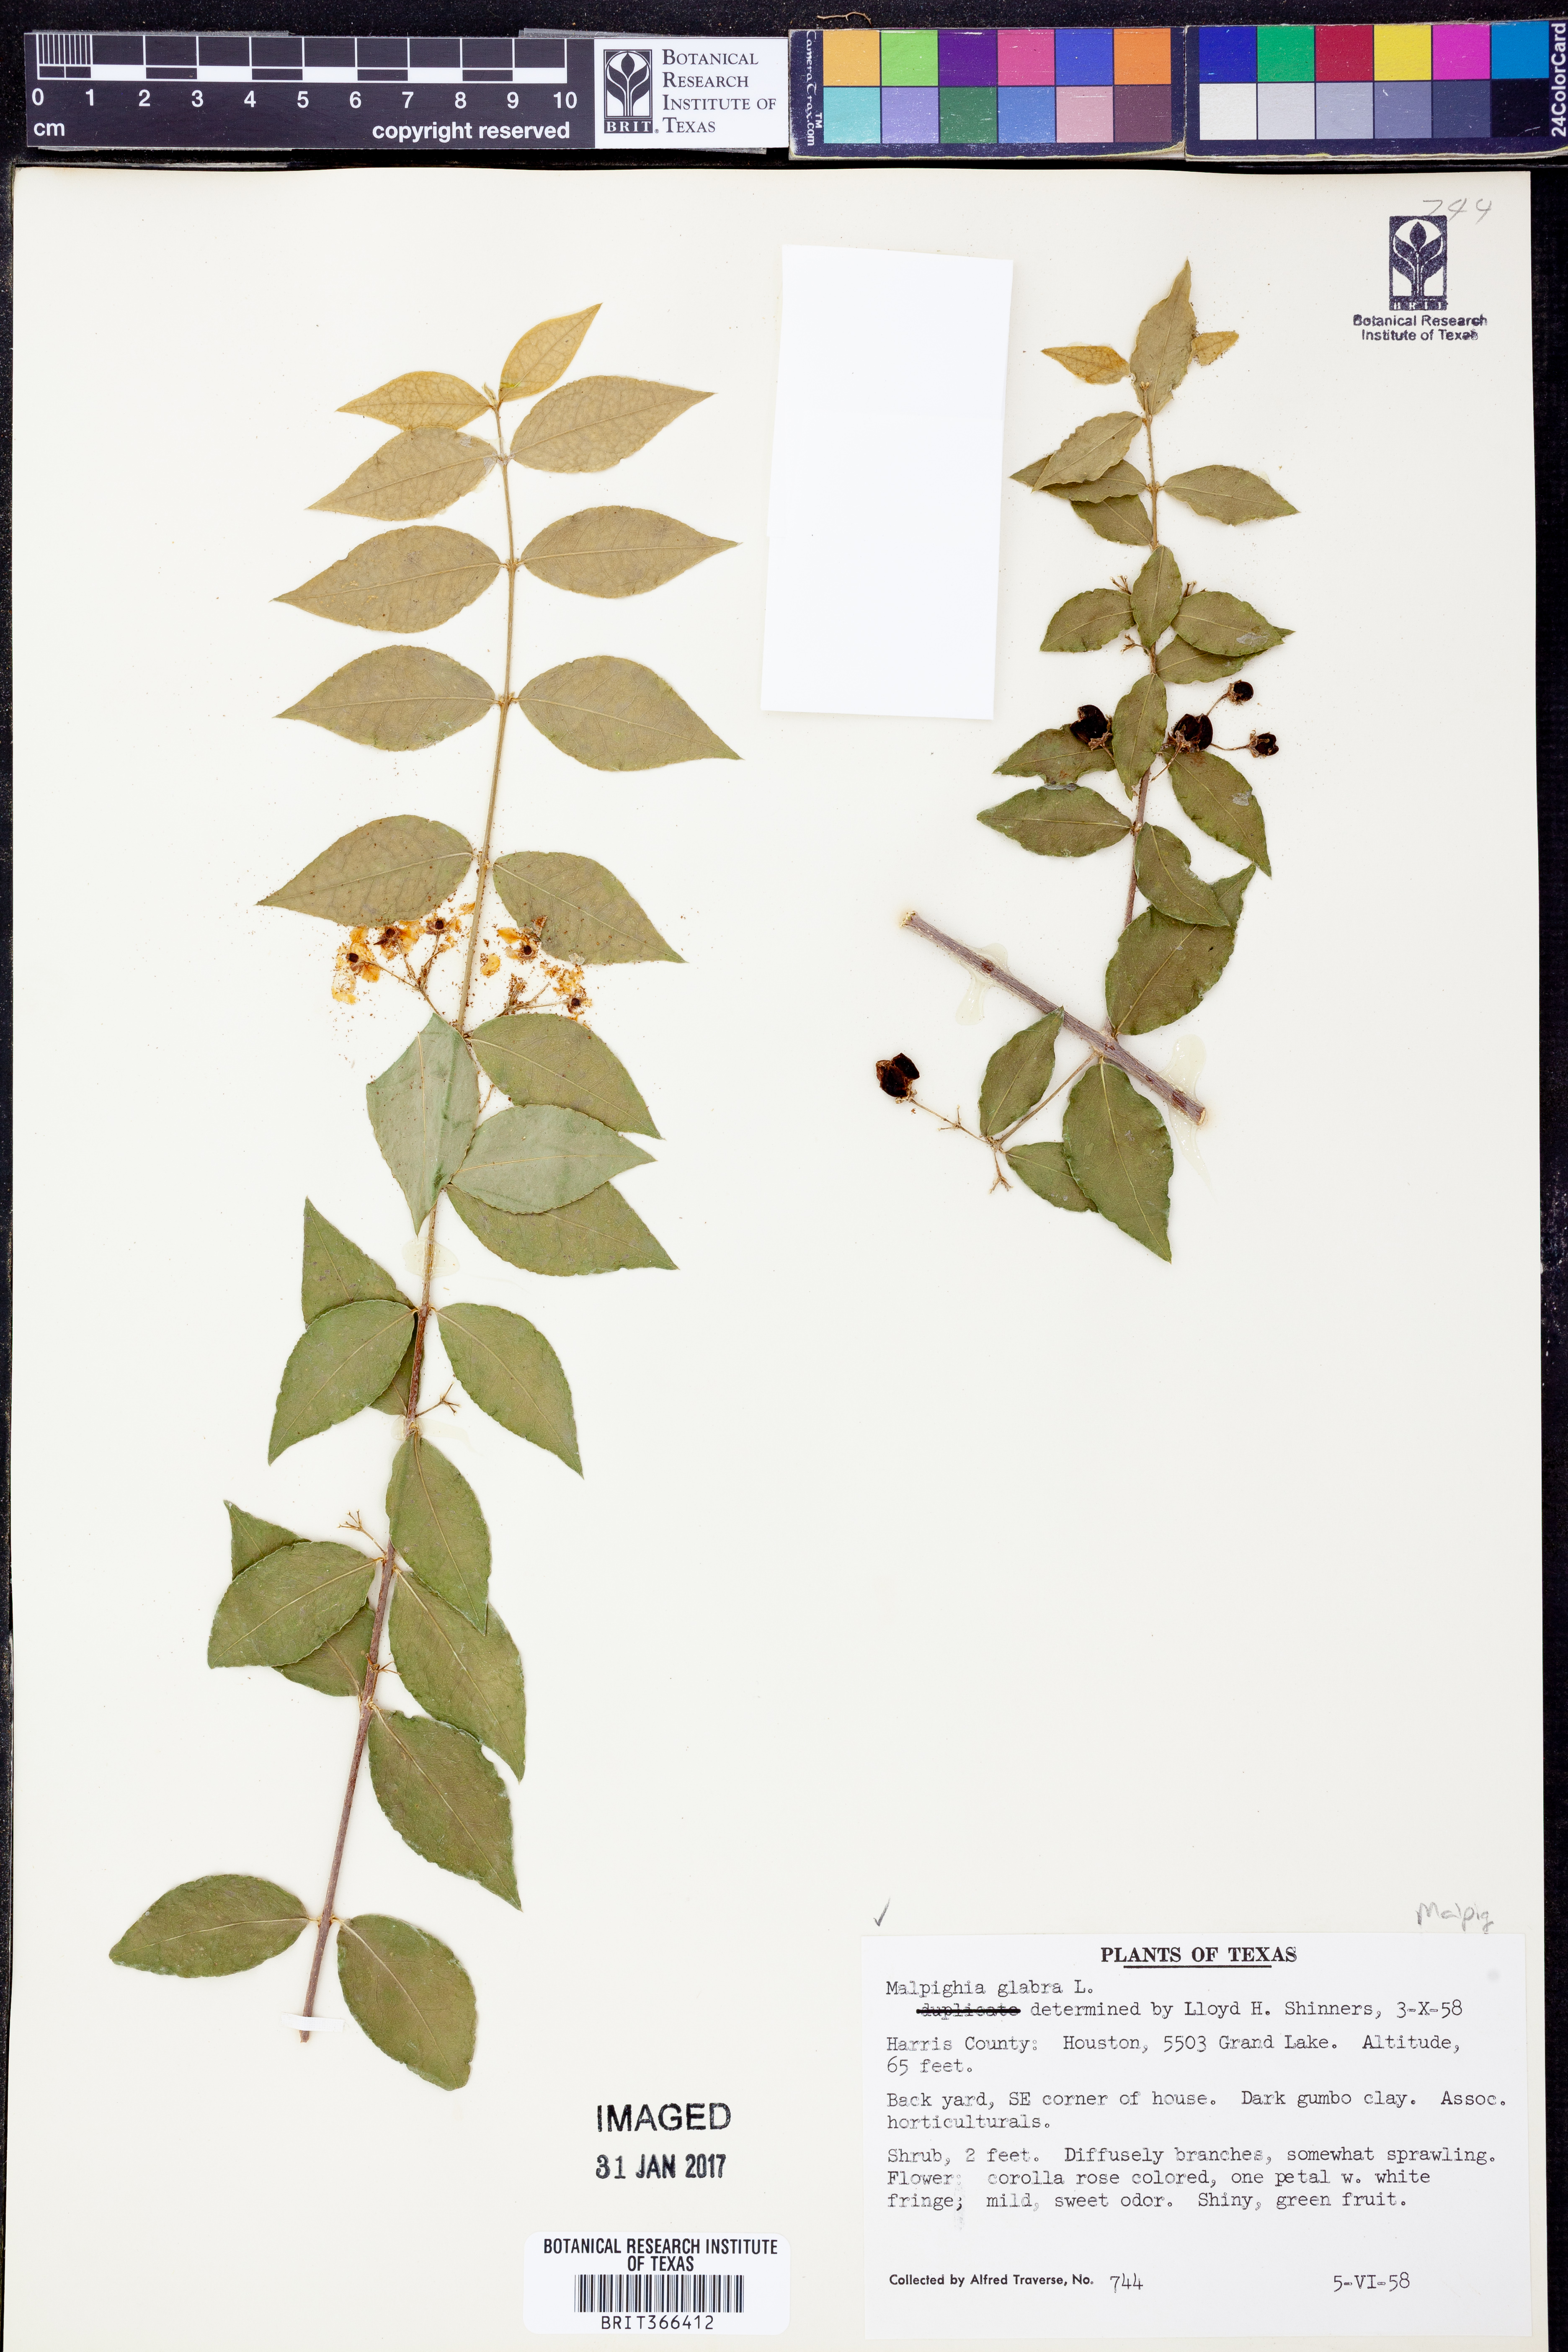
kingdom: Plantae
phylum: Tracheophyta
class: Magnoliopsida
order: Malpighiales
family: Malpighiaceae
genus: Malpighia
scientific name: Malpighia glabra
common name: Barbados cherry
